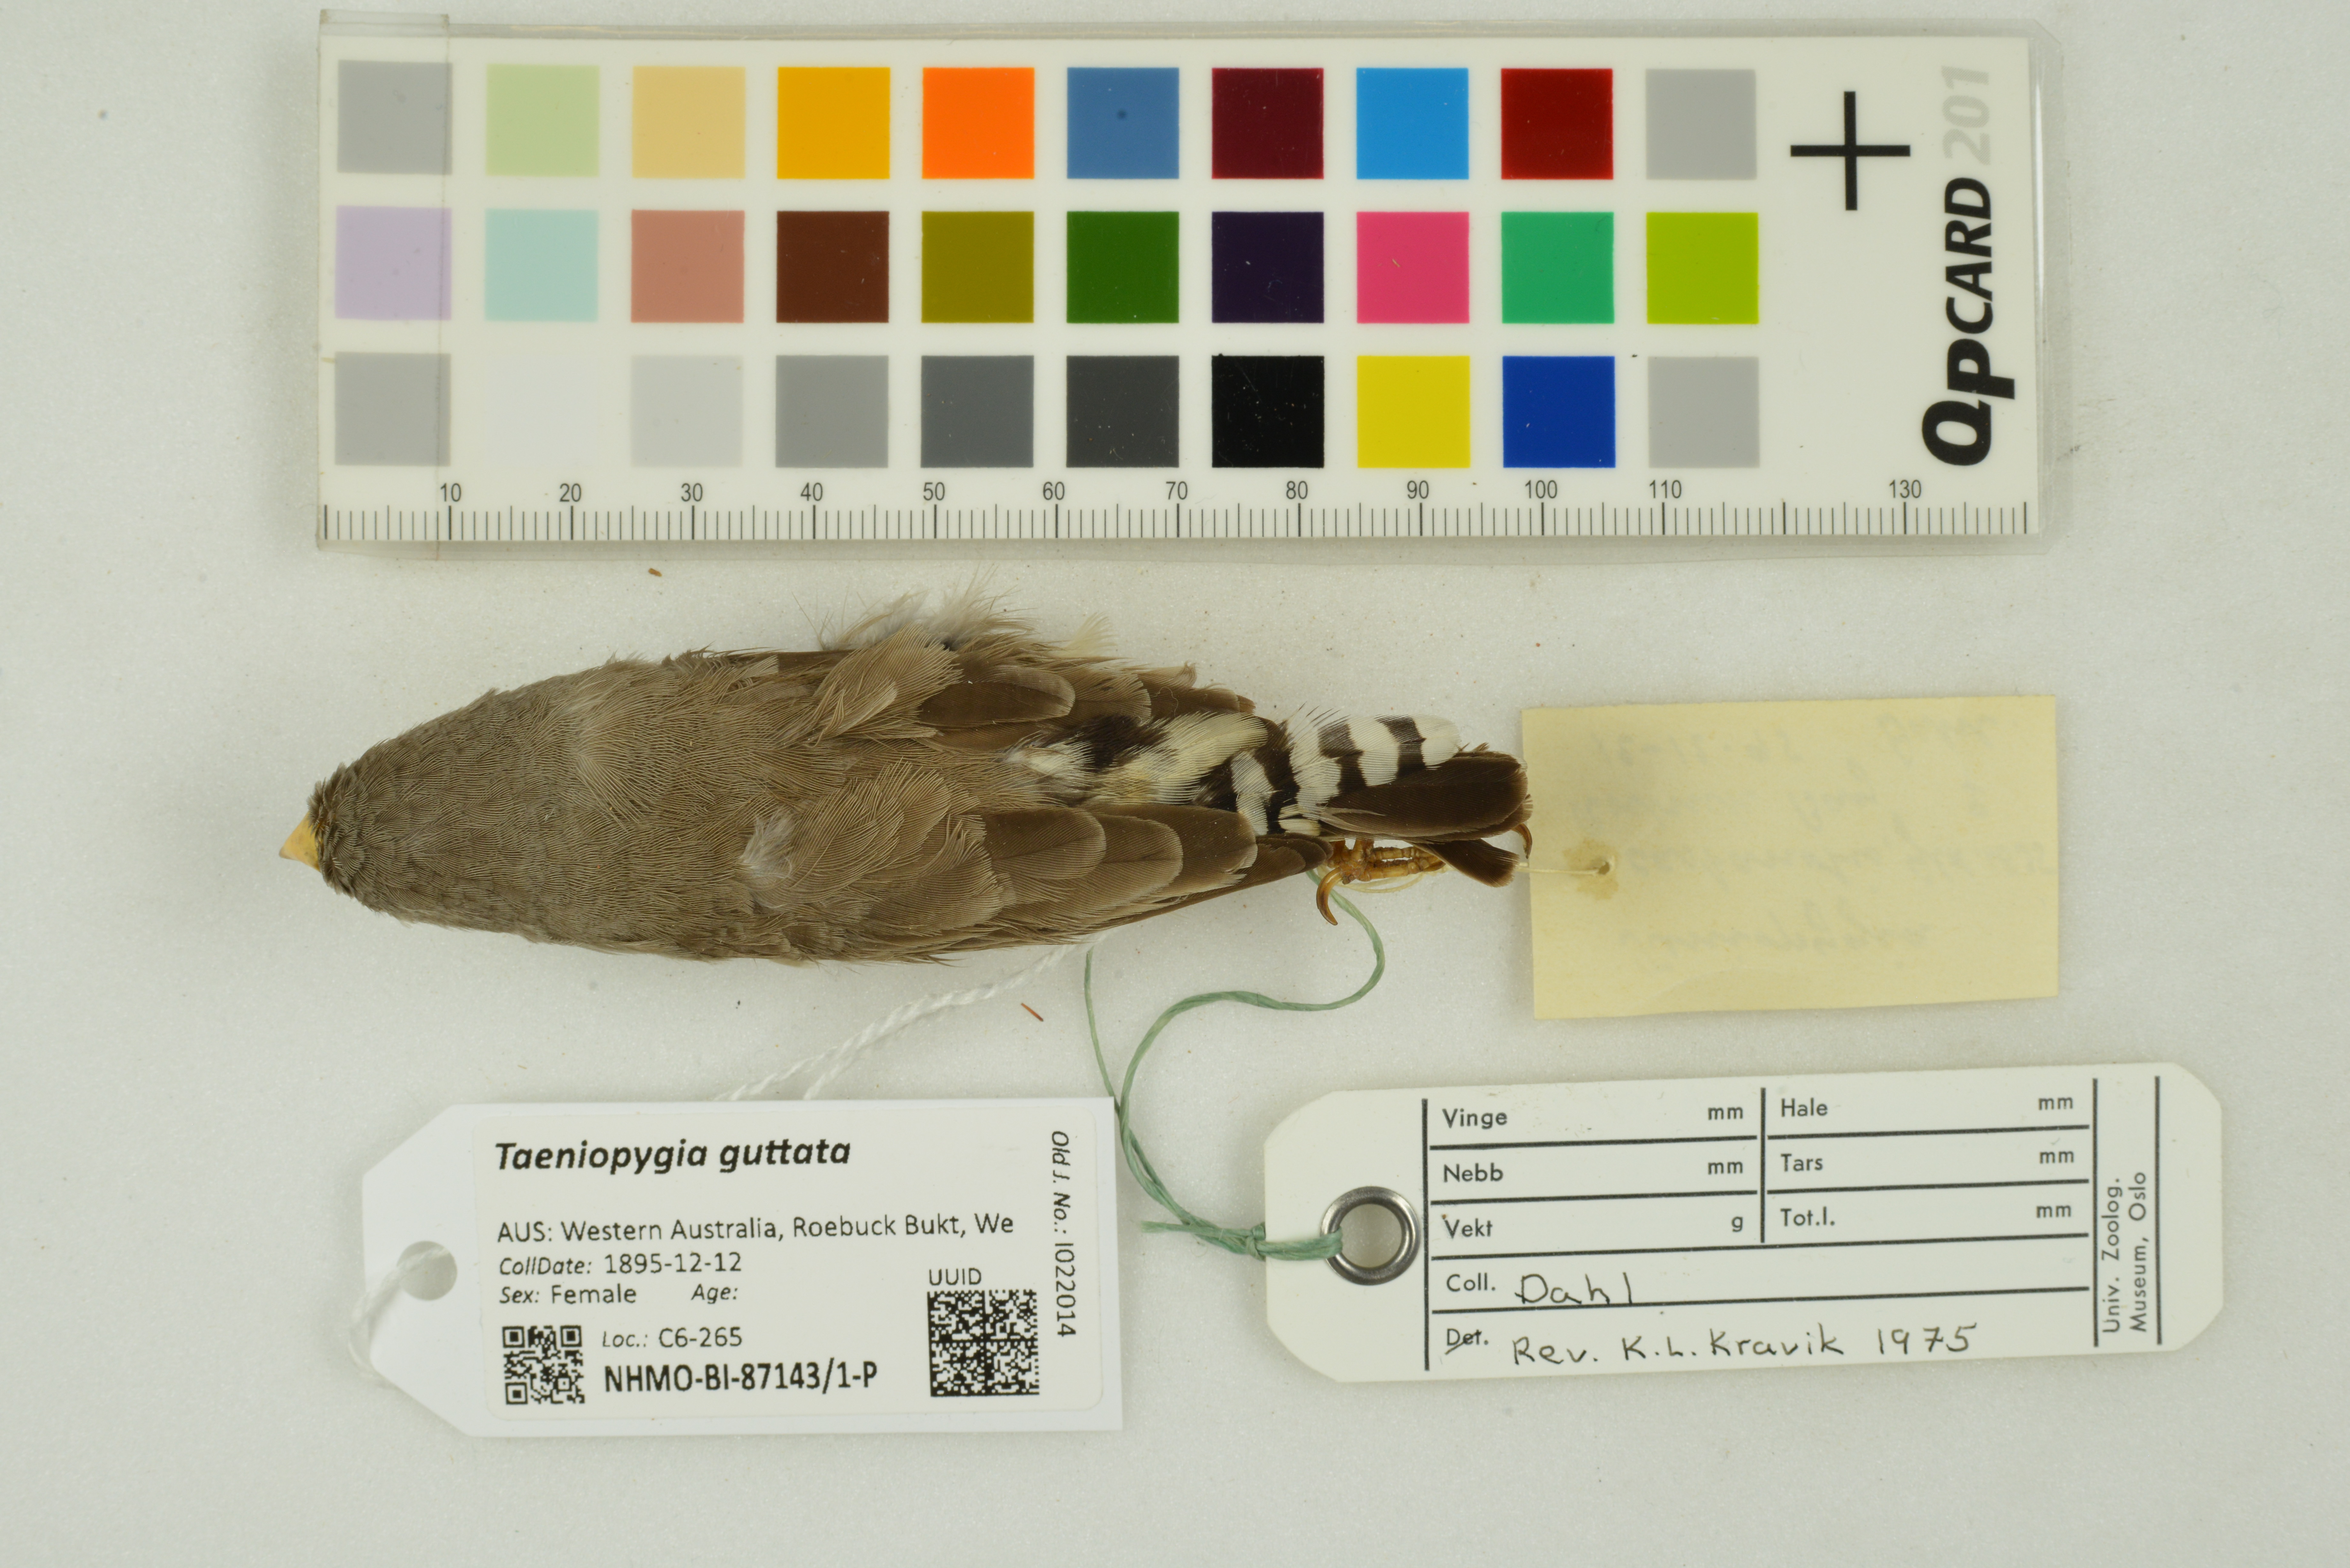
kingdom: Animalia
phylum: Chordata
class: Aves
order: Passeriformes
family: Estrildidae
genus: Taeniopygia
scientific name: Taeniopygia guttata
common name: Zebra finch
